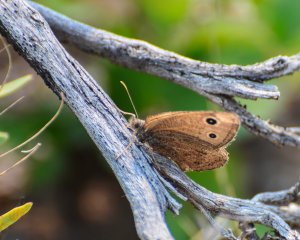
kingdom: Animalia
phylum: Arthropoda
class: Insecta
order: Lepidoptera
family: Nymphalidae
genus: Cercyonis
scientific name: Cercyonis oetus
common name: Small Wood-Nymph
